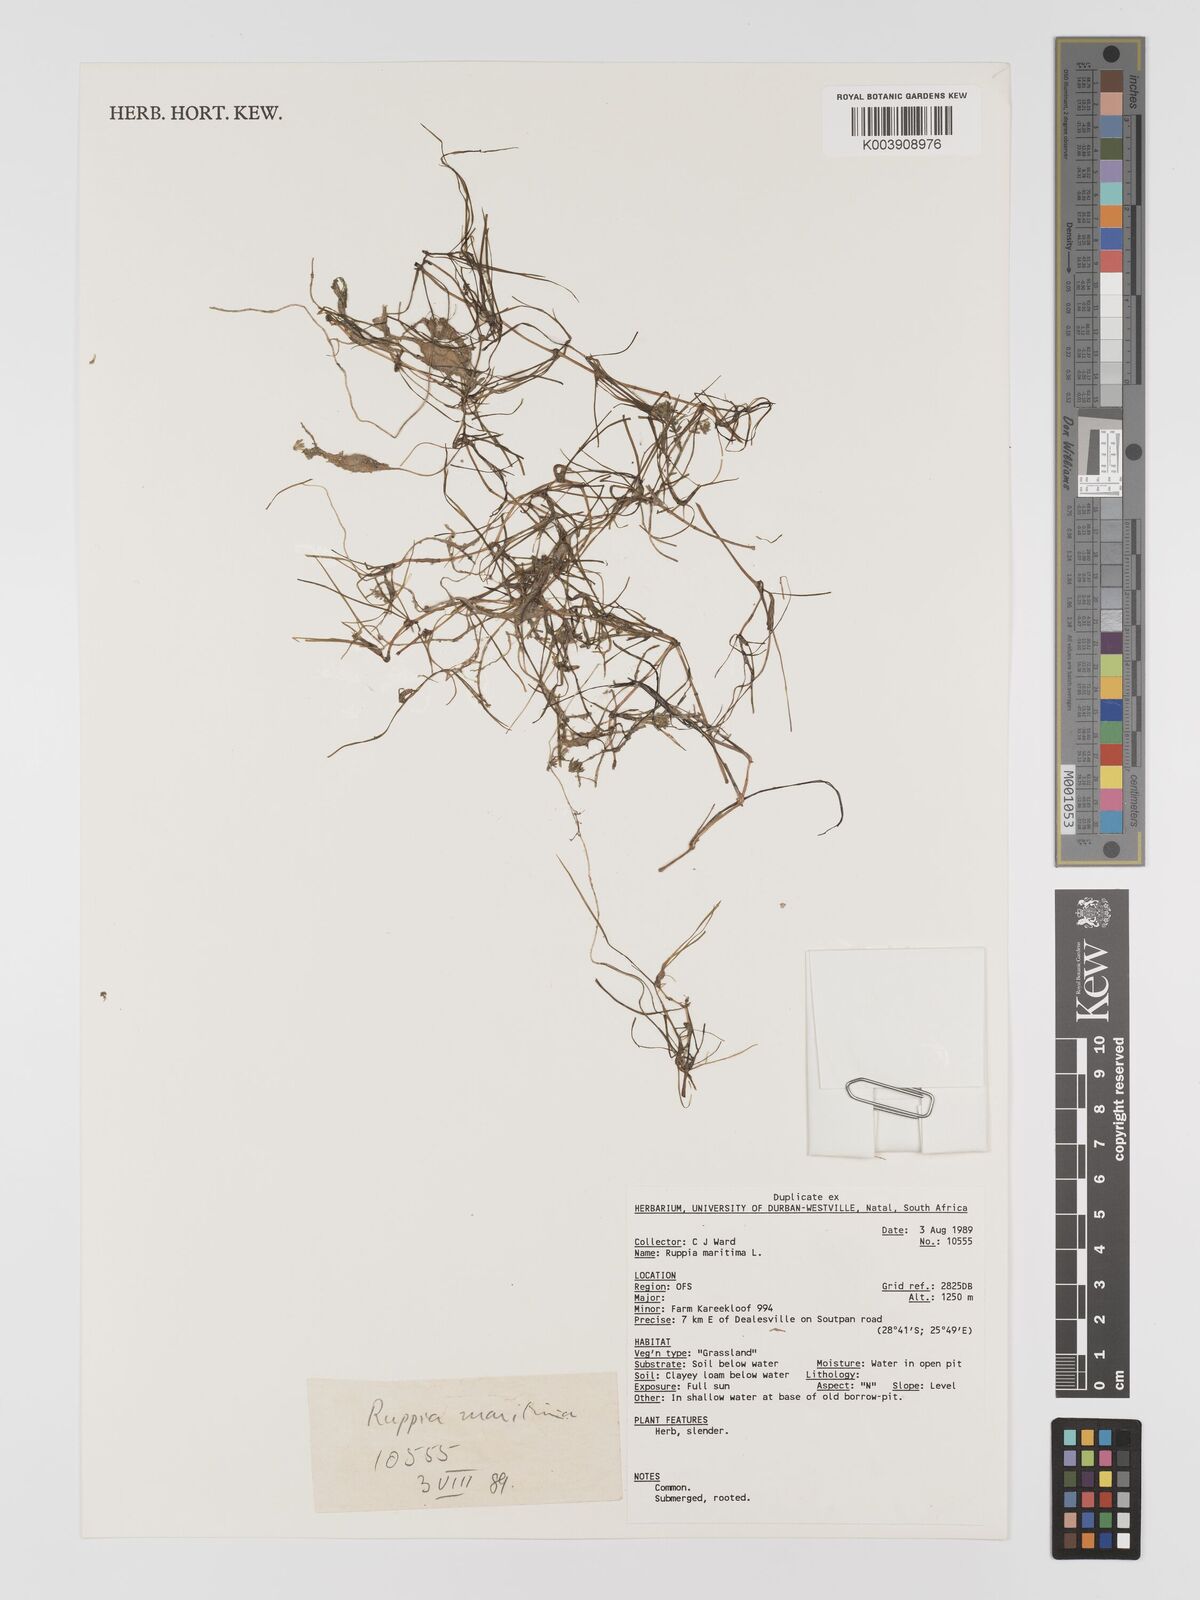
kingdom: Plantae
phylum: Tracheophyta
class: Liliopsida
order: Alismatales
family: Ruppiaceae
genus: Ruppia
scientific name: Ruppia maritima
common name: Beaked tasselweed
